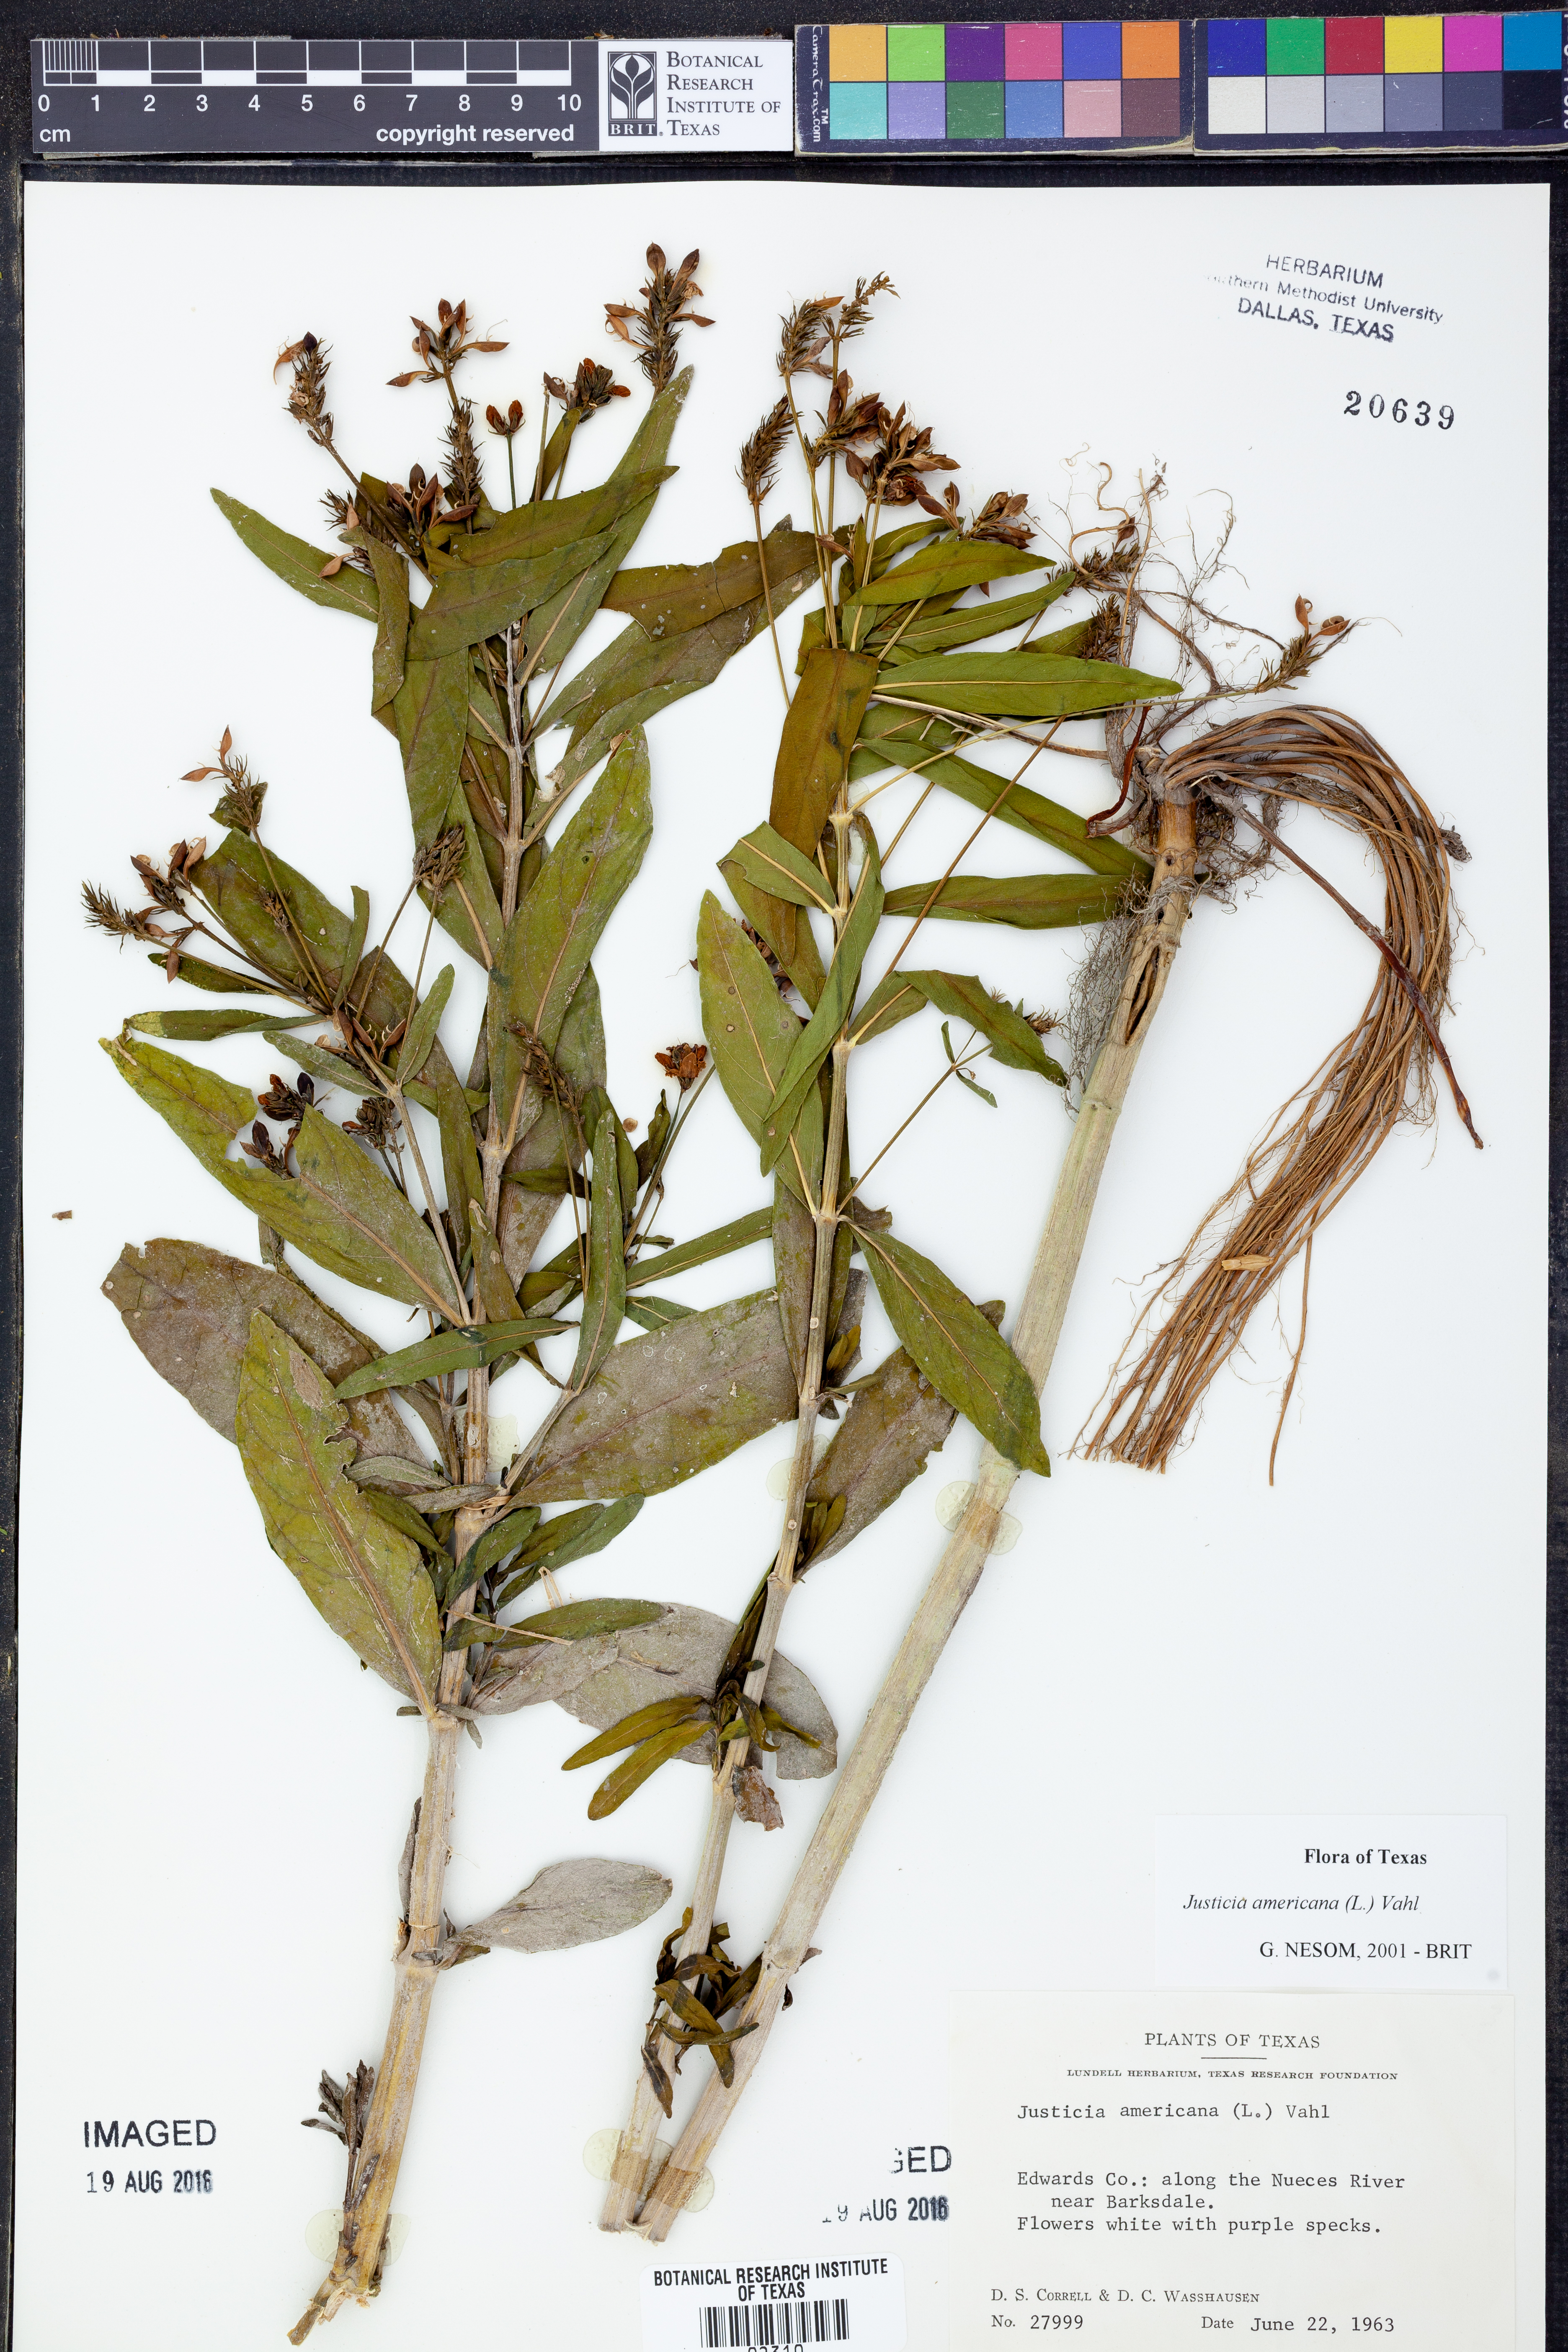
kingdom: Plantae
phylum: Tracheophyta
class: Magnoliopsida
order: Lamiales
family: Acanthaceae
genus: Dianthera
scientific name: Dianthera americana
